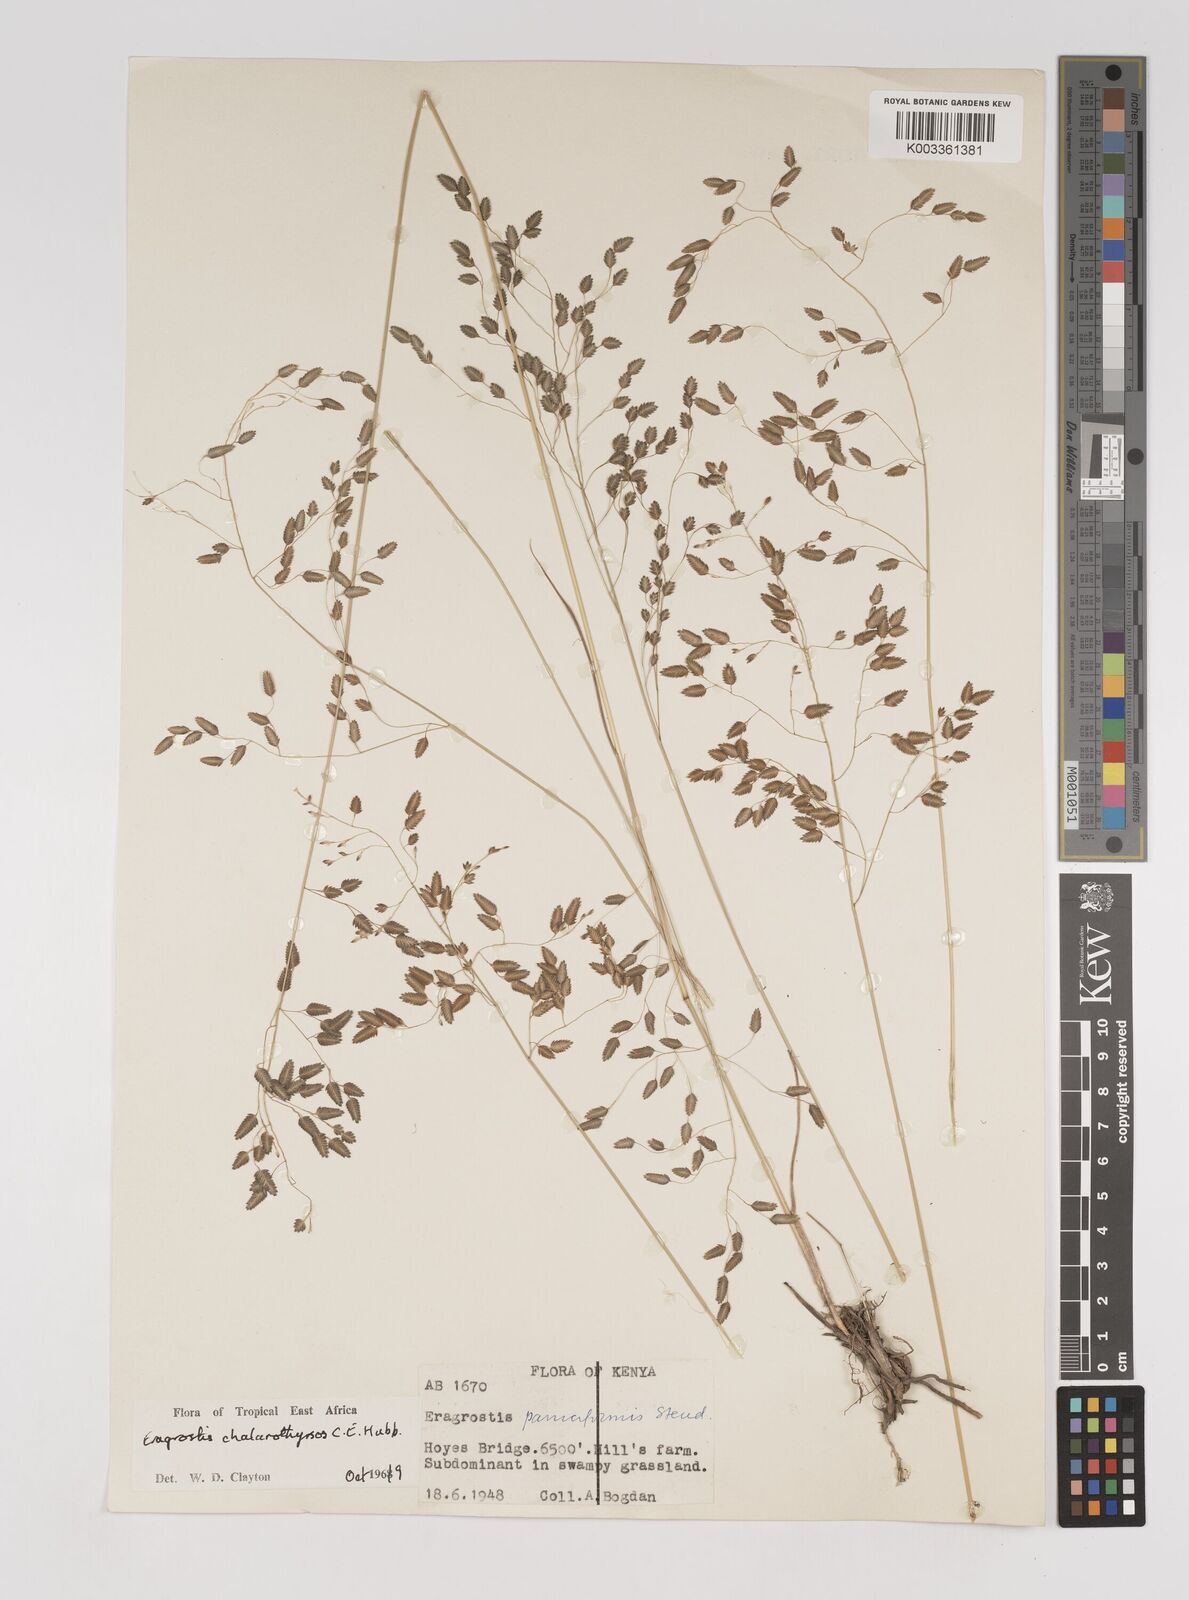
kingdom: Plantae
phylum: Tracheophyta
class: Liliopsida
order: Poales
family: Poaceae
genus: Eragrostis
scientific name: Eragrostis chalarothyrsos
